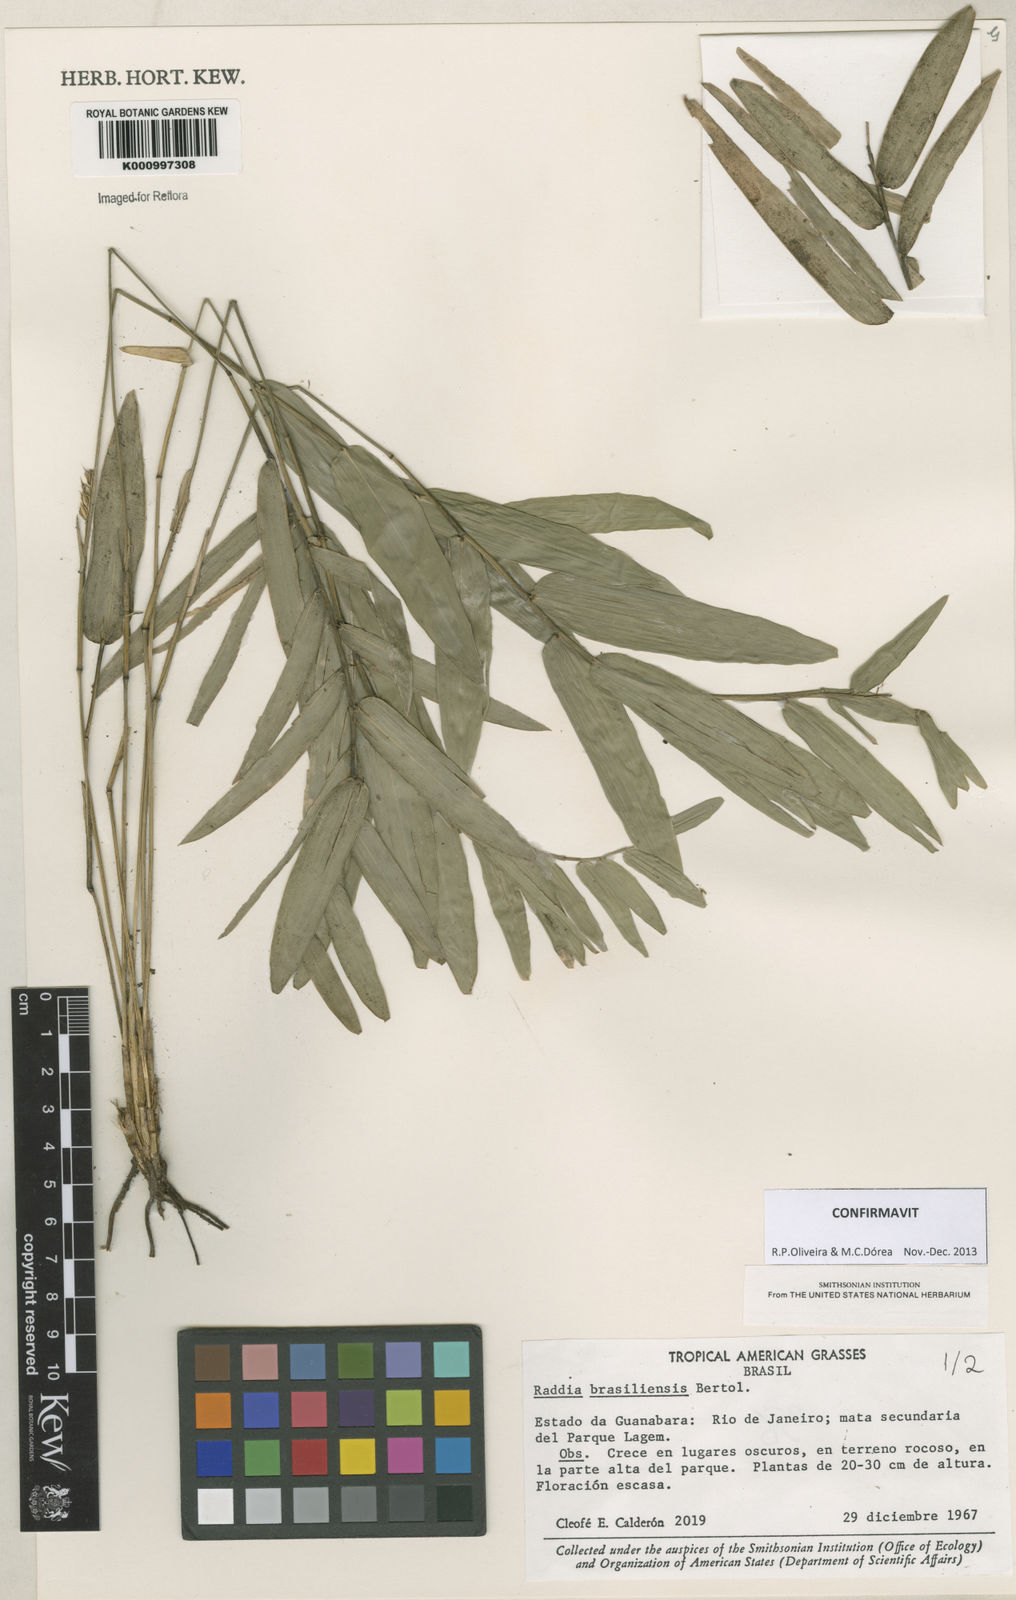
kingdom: Plantae
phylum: Tracheophyta
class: Liliopsida
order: Poales
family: Poaceae
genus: Raddia
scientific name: Raddia brasiliensis
